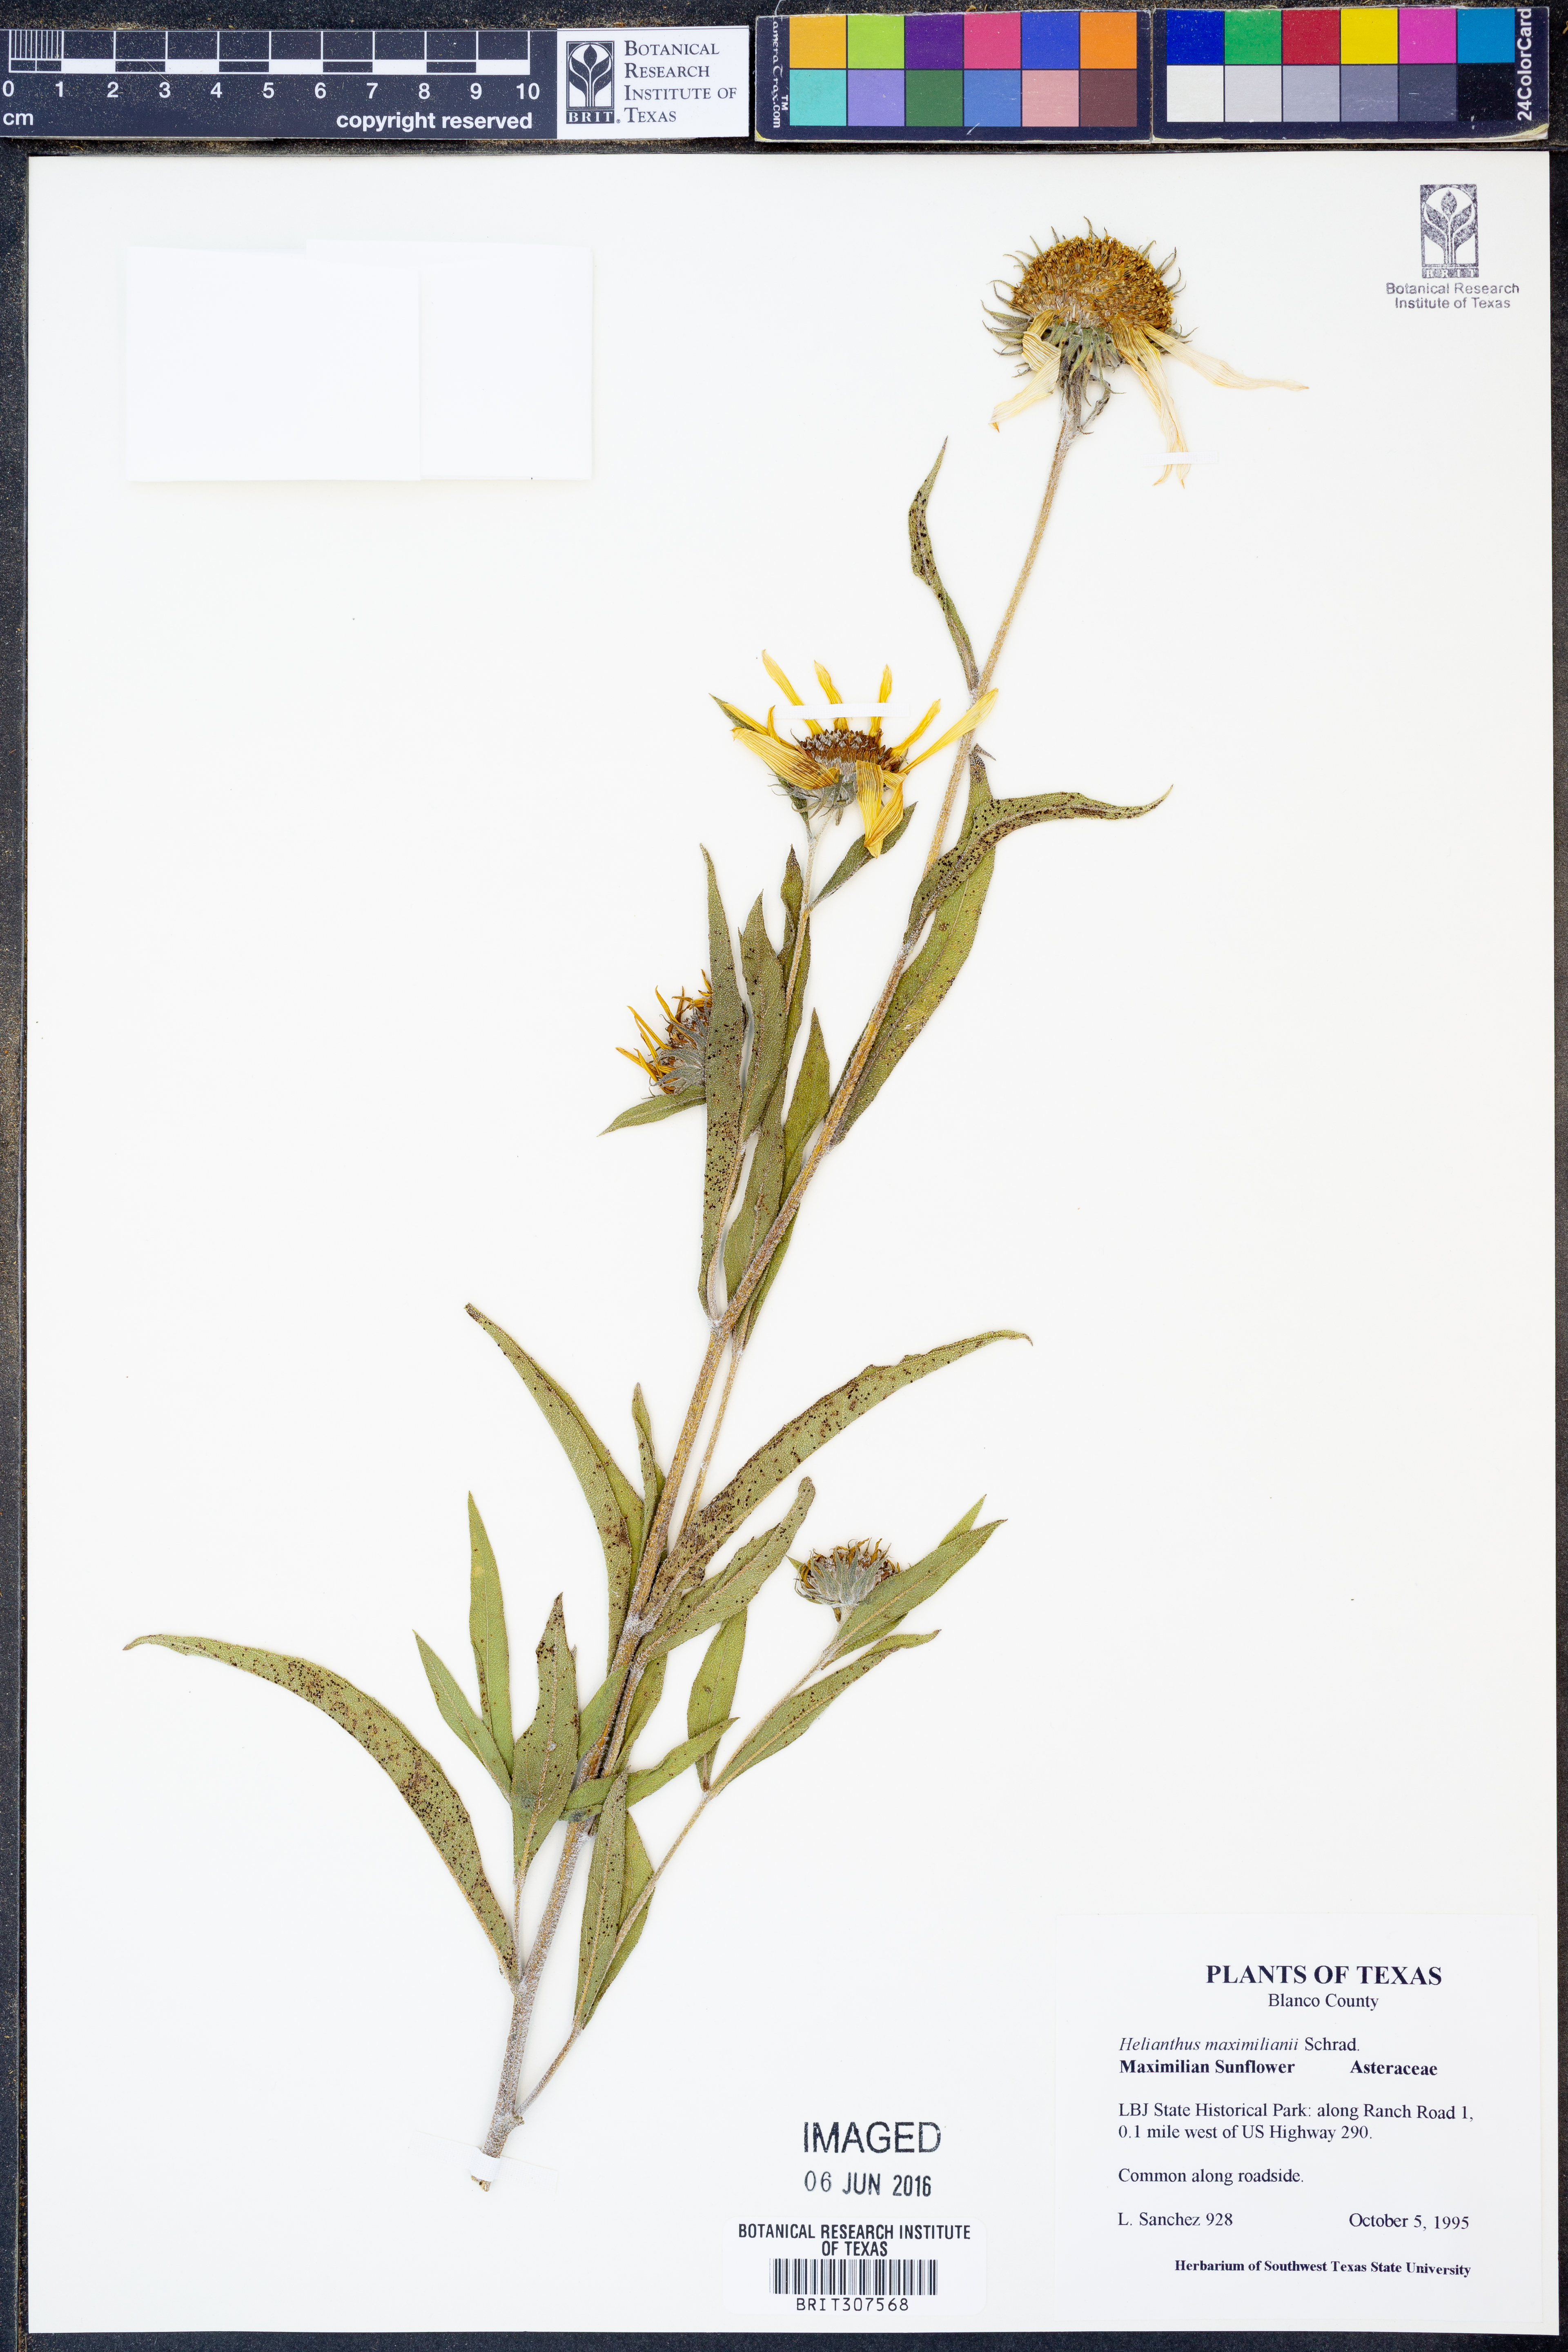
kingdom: Plantae
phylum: Tracheophyta
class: Magnoliopsida
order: Asterales
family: Asteraceae
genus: Helianthus
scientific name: Helianthus maximiliani
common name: Maximilian's sunflower
